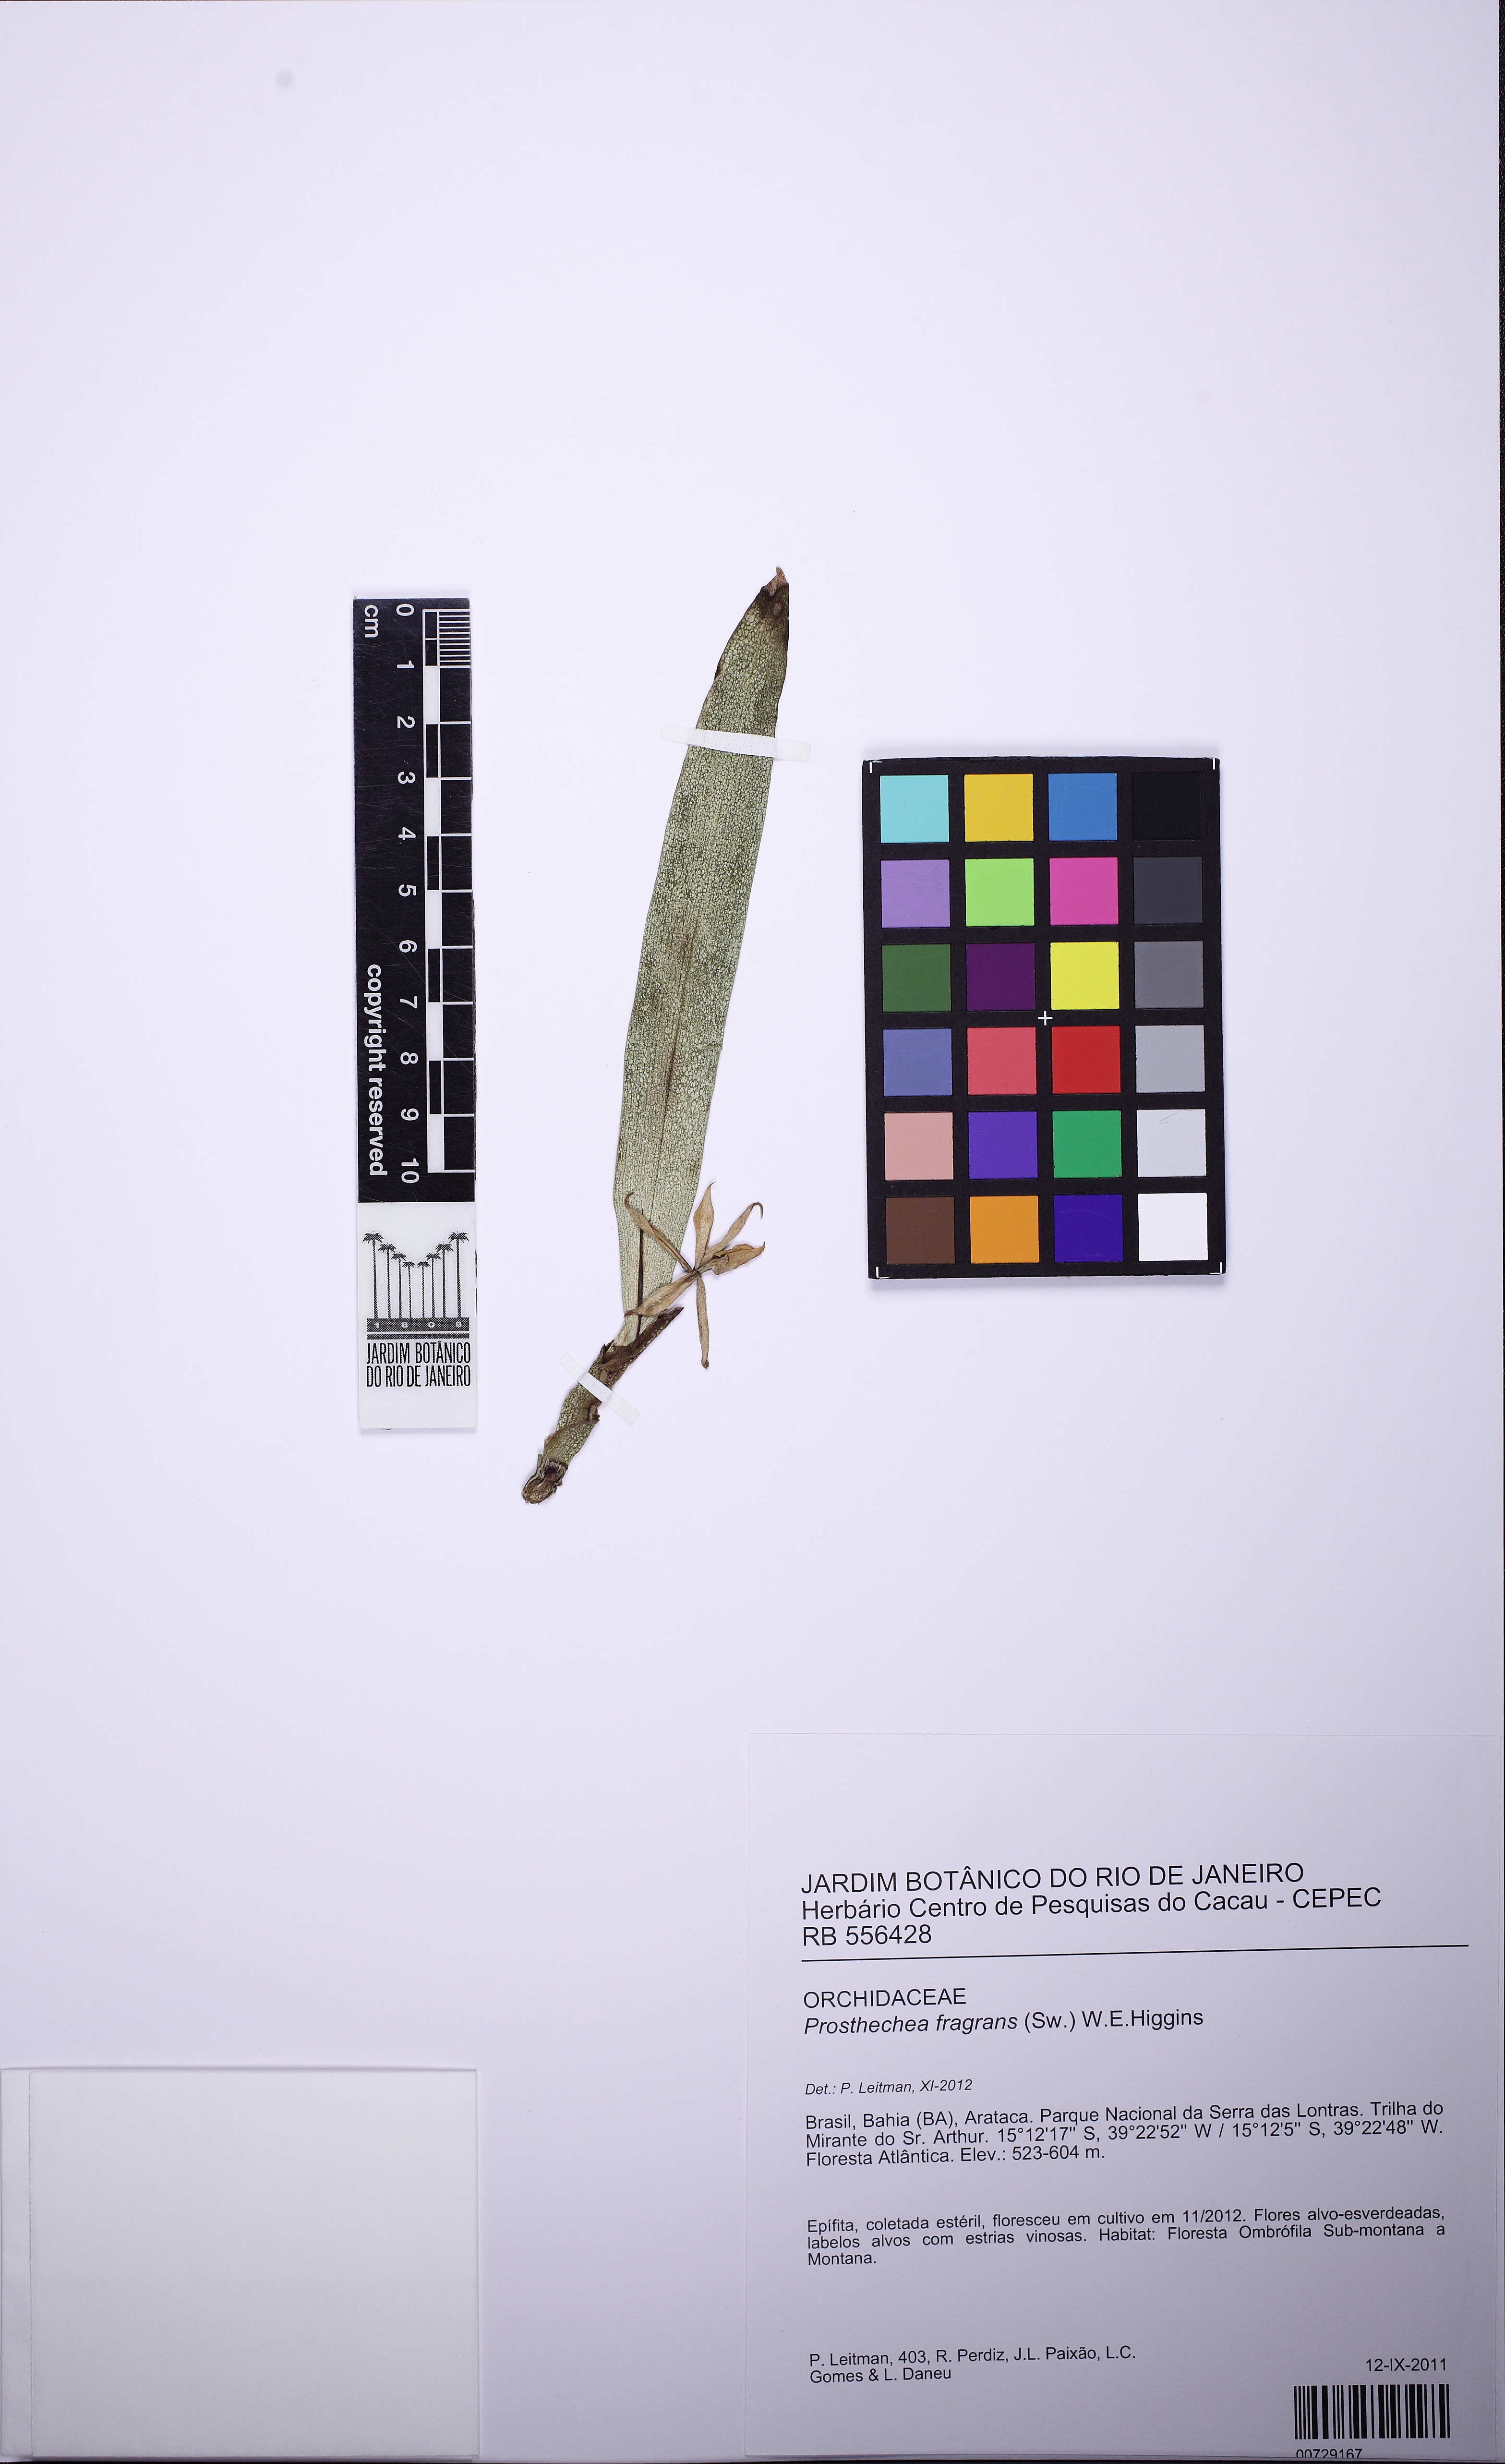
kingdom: Plantae
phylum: Tracheophyta
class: Liliopsida
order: Asparagales
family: Orchidaceae
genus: Prosthechea
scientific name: Prosthechea aemula
